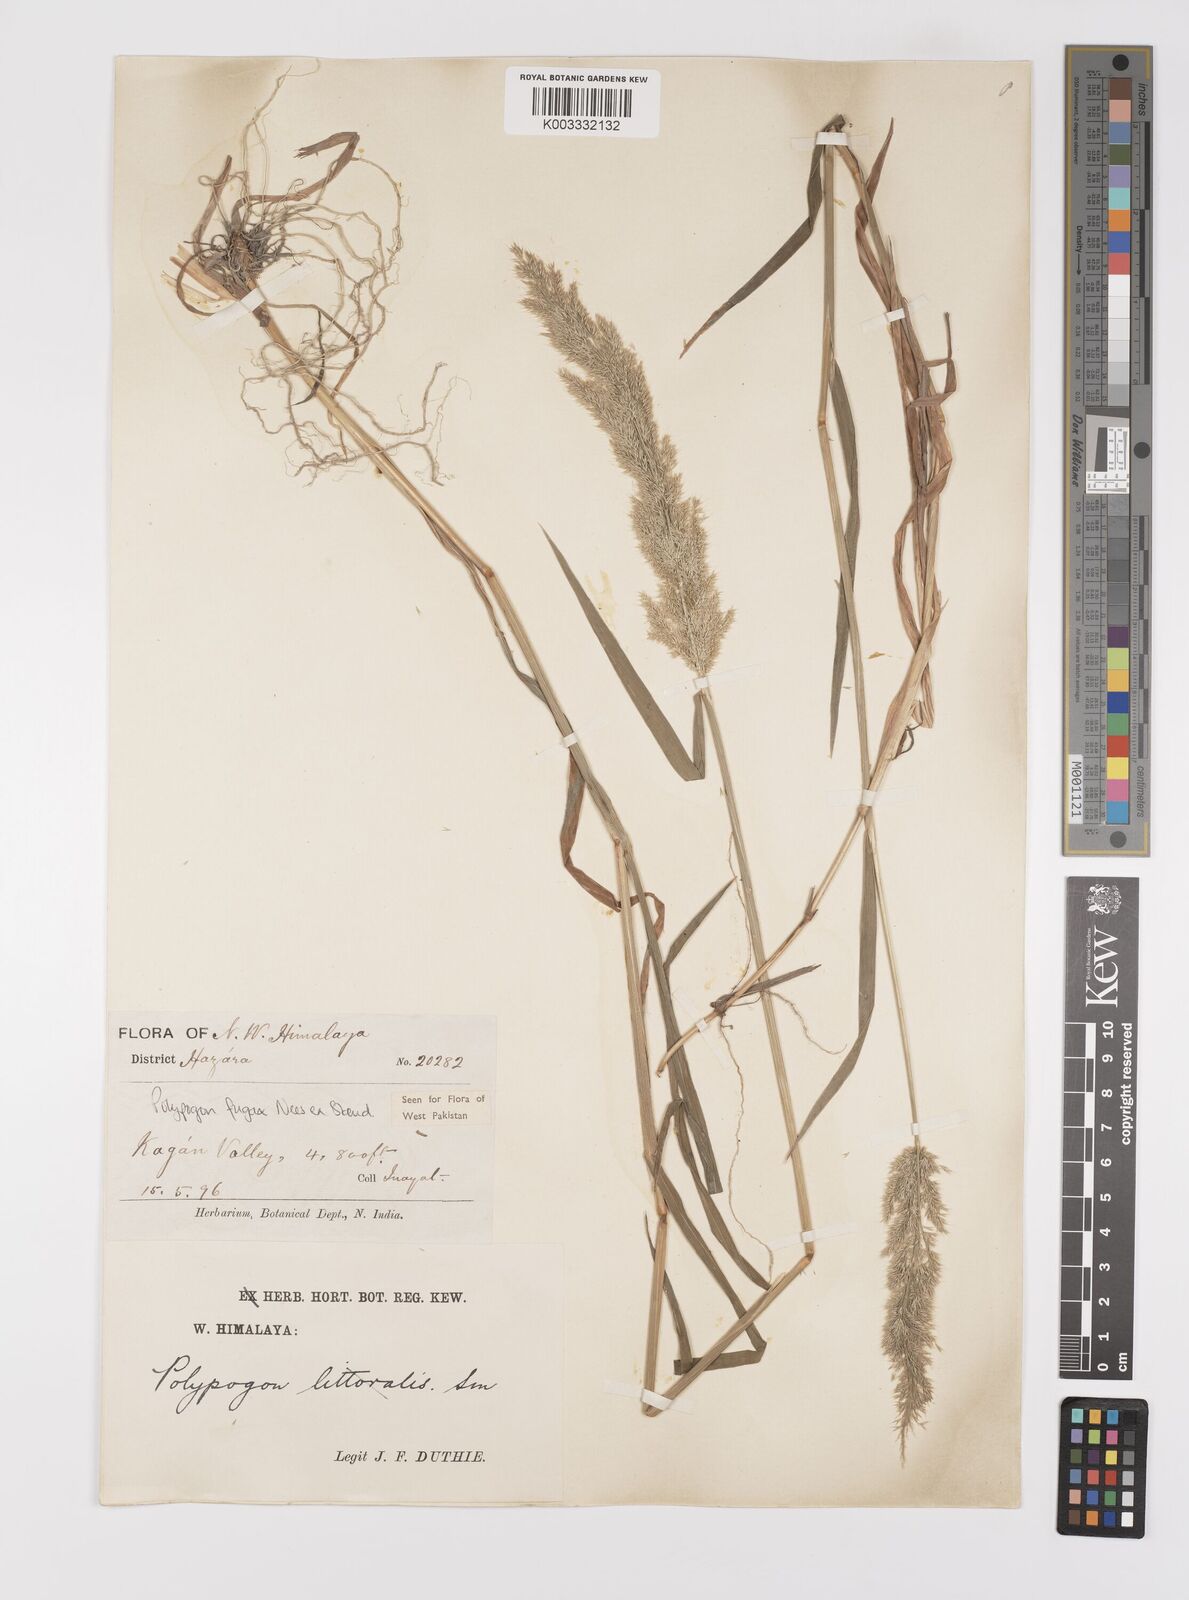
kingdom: Plantae
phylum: Tracheophyta
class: Liliopsida
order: Poales
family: Poaceae
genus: Polypogon
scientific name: Polypogon fugax
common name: Asia minor bluegrass
